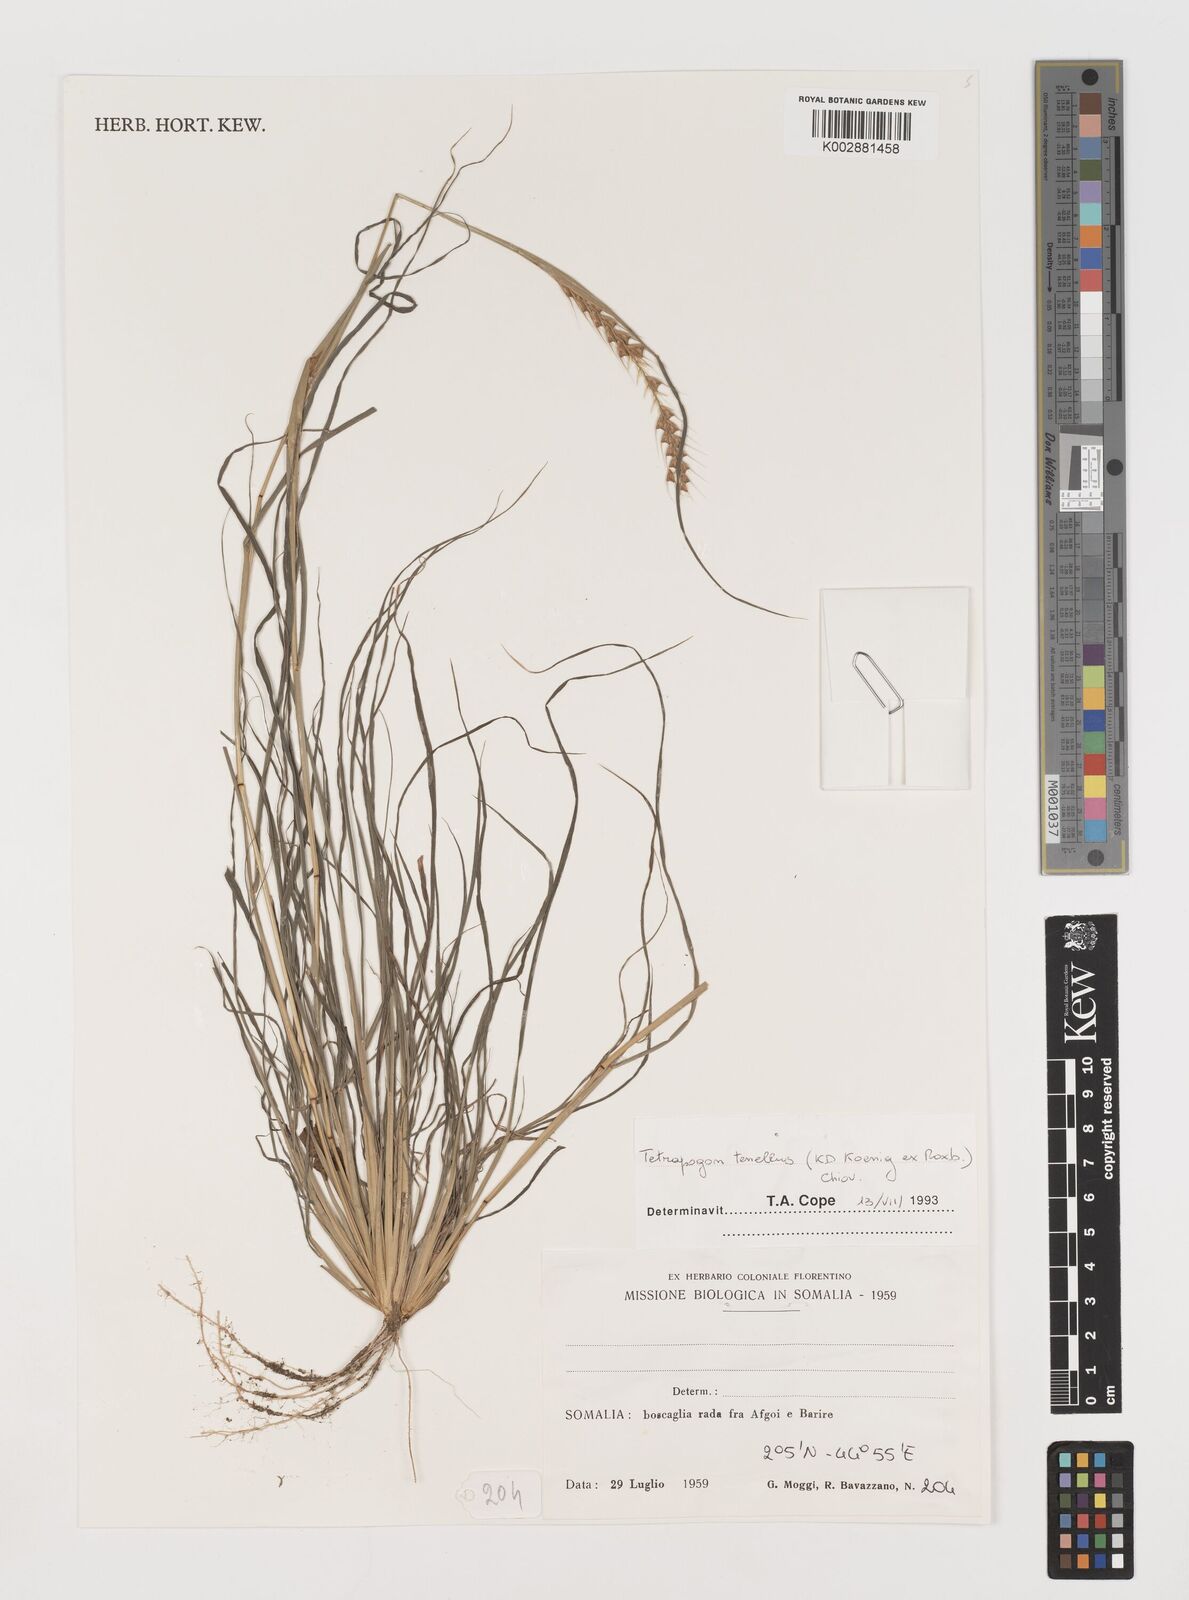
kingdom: Plantae
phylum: Tracheophyta
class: Liliopsida
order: Poales
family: Poaceae
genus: Tetrapogon
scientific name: Tetrapogon tenellus
